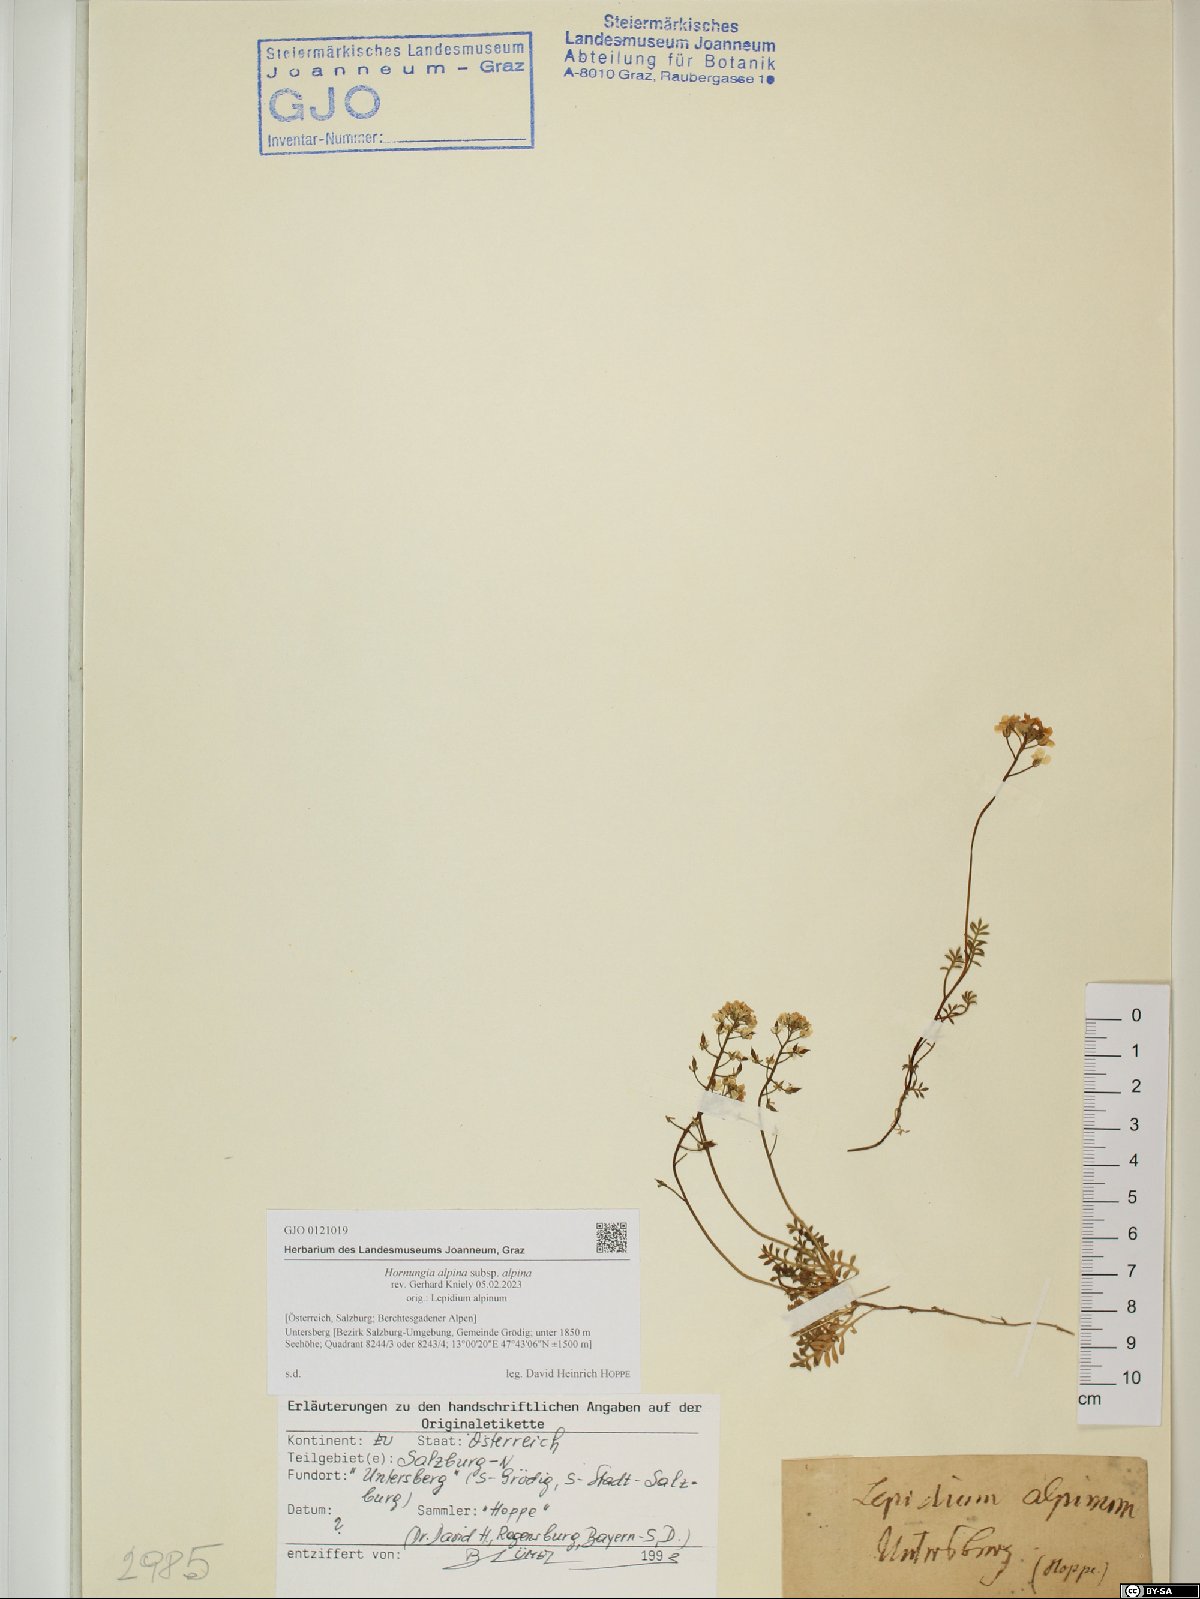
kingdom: Plantae
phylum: Tracheophyta
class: Magnoliopsida
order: Brassicales
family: Brassicaceae
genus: Hornungia
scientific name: Hornungia alpina
